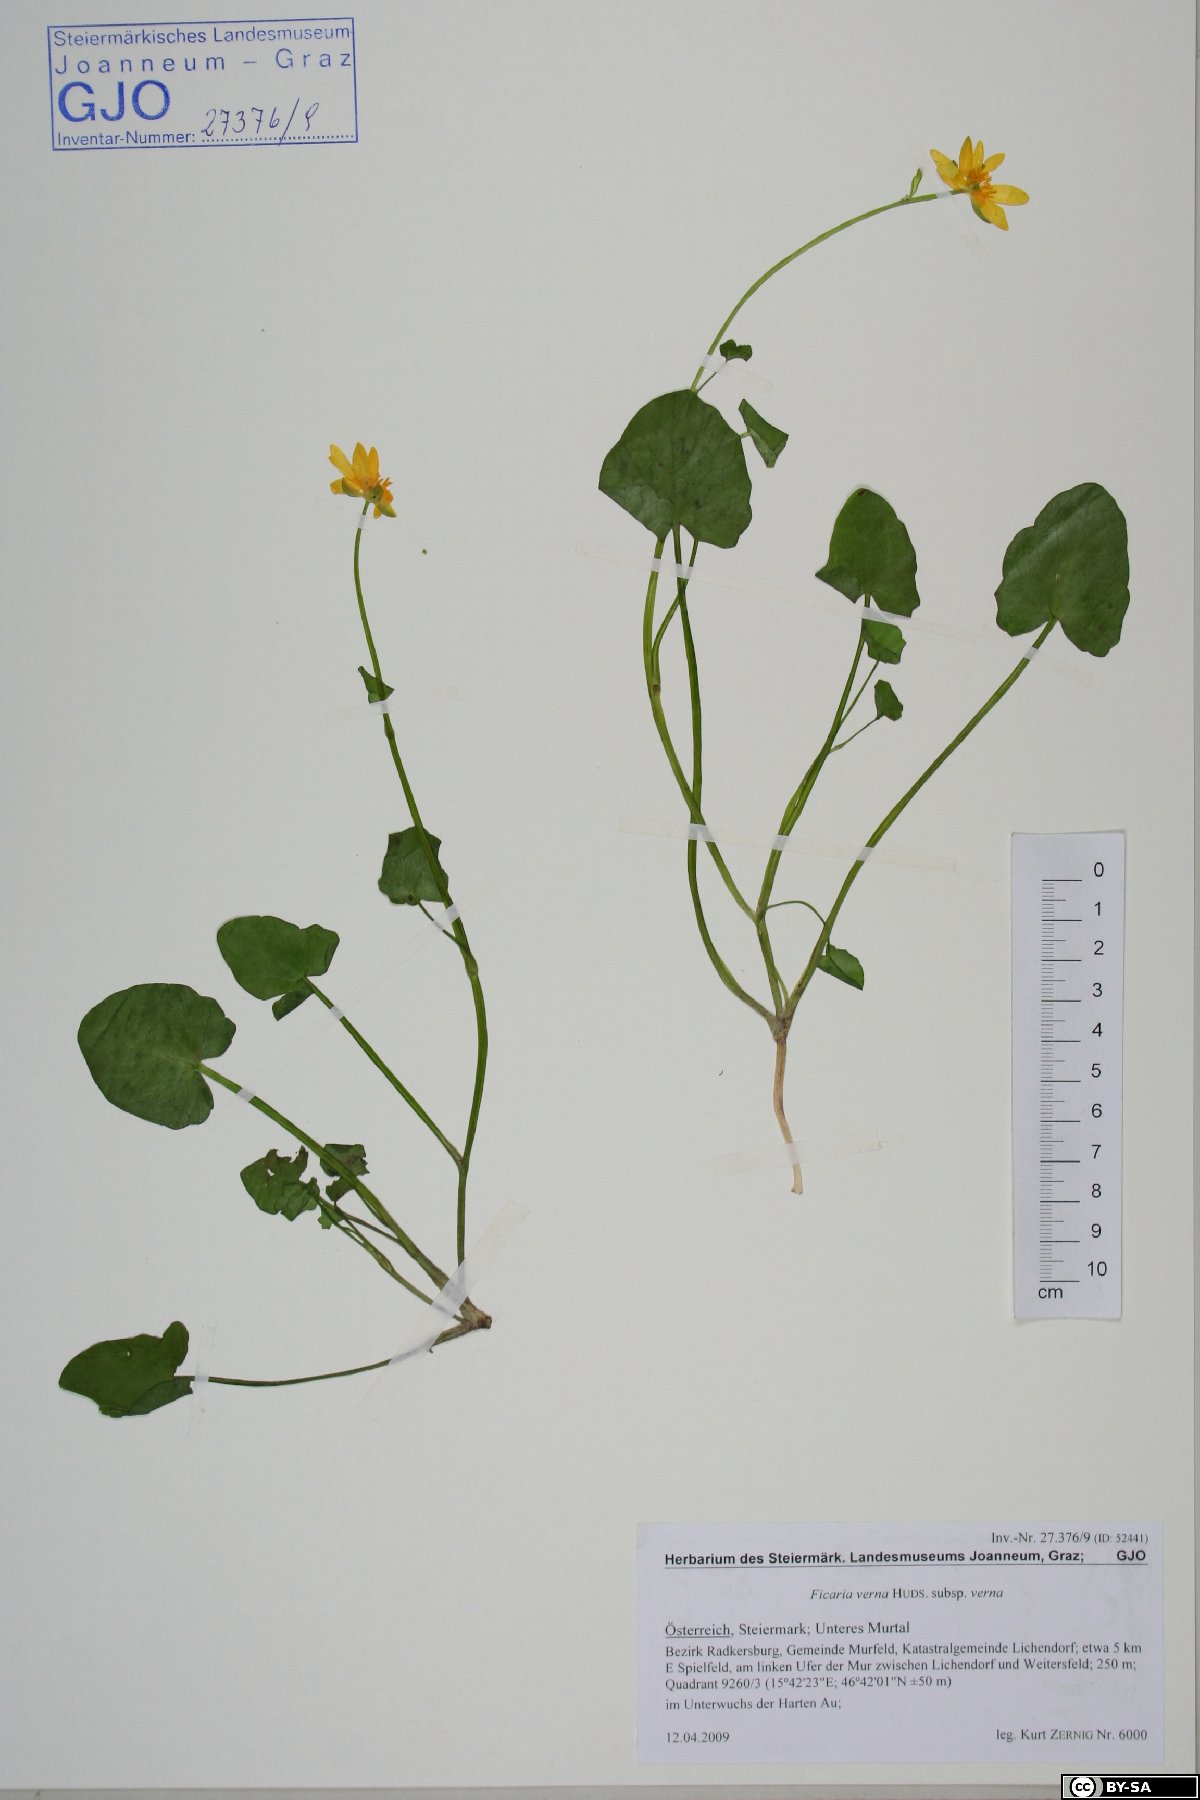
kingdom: Plantae
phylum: Tracheophyta
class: Magnoliopsida
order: Ranunculales
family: Ranunculaceae
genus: Ficaria
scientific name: Ficaria verna
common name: Lesser celandine
